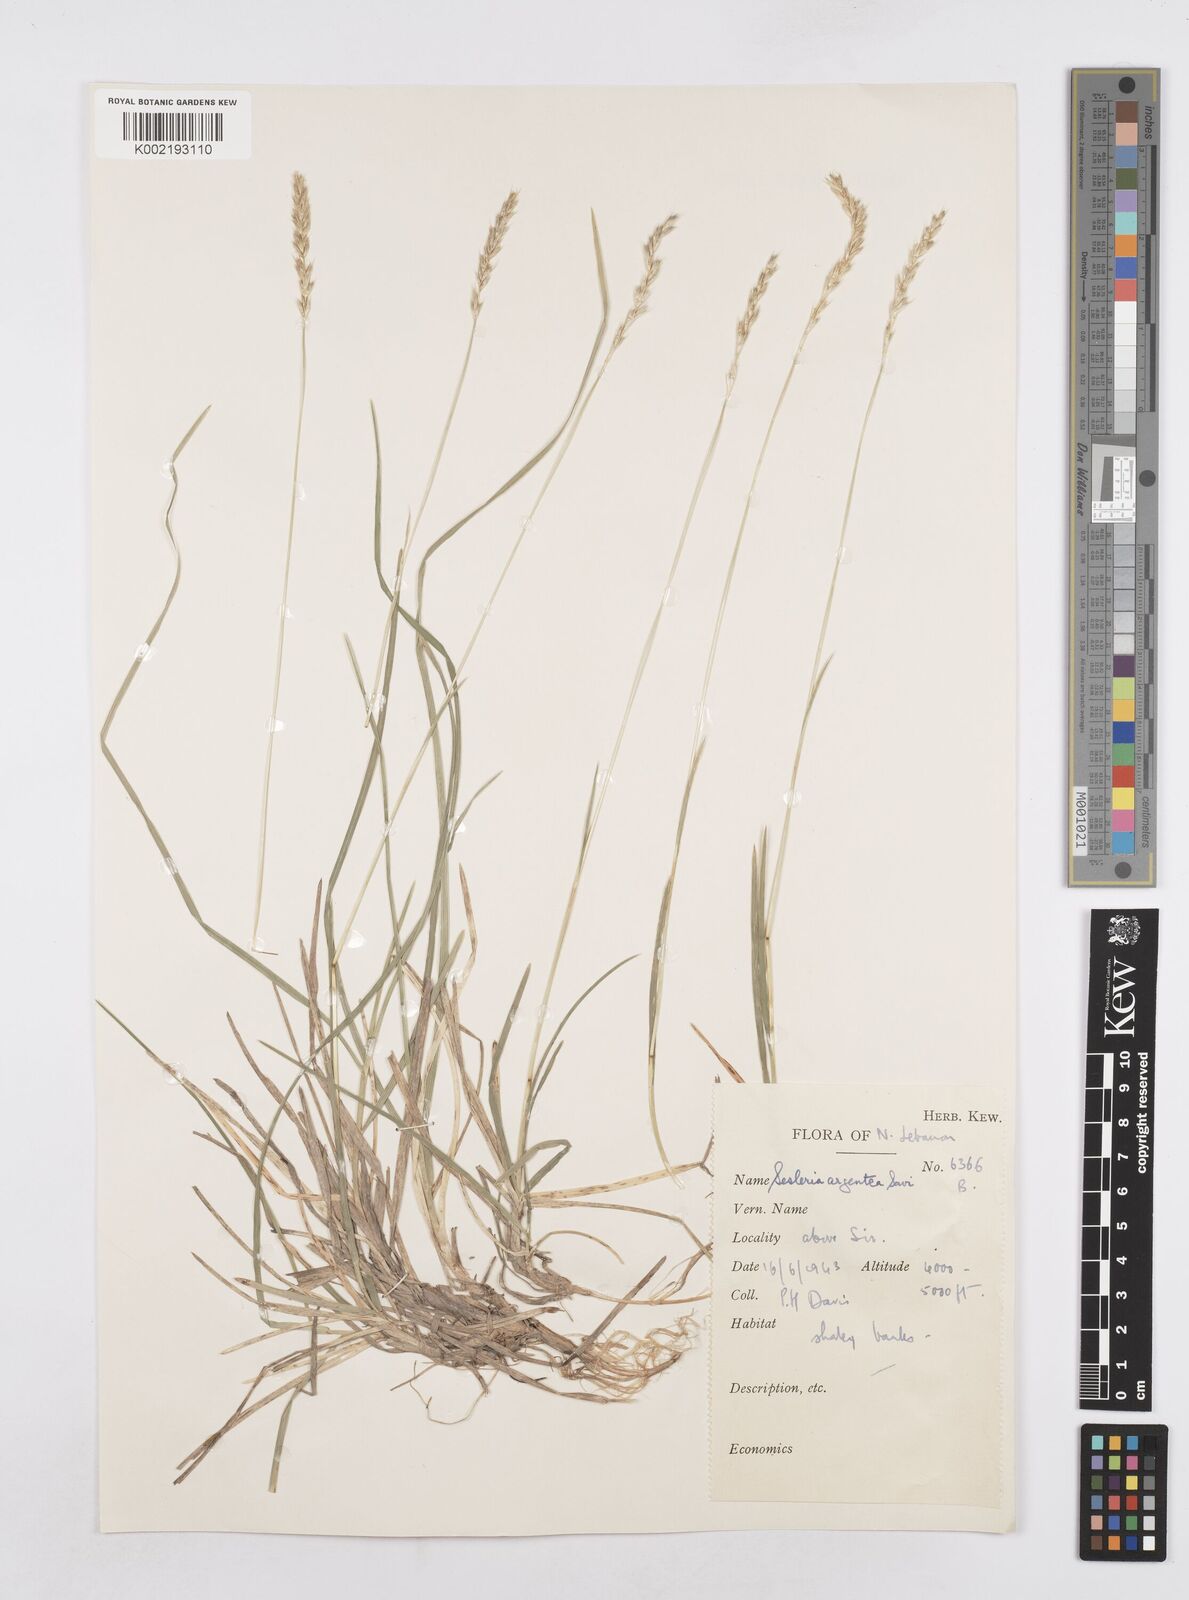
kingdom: Plantae
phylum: Tracheophyta
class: Liliopsida
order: Poales
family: Poaceae
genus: Sesleria
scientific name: Sesleria alba
